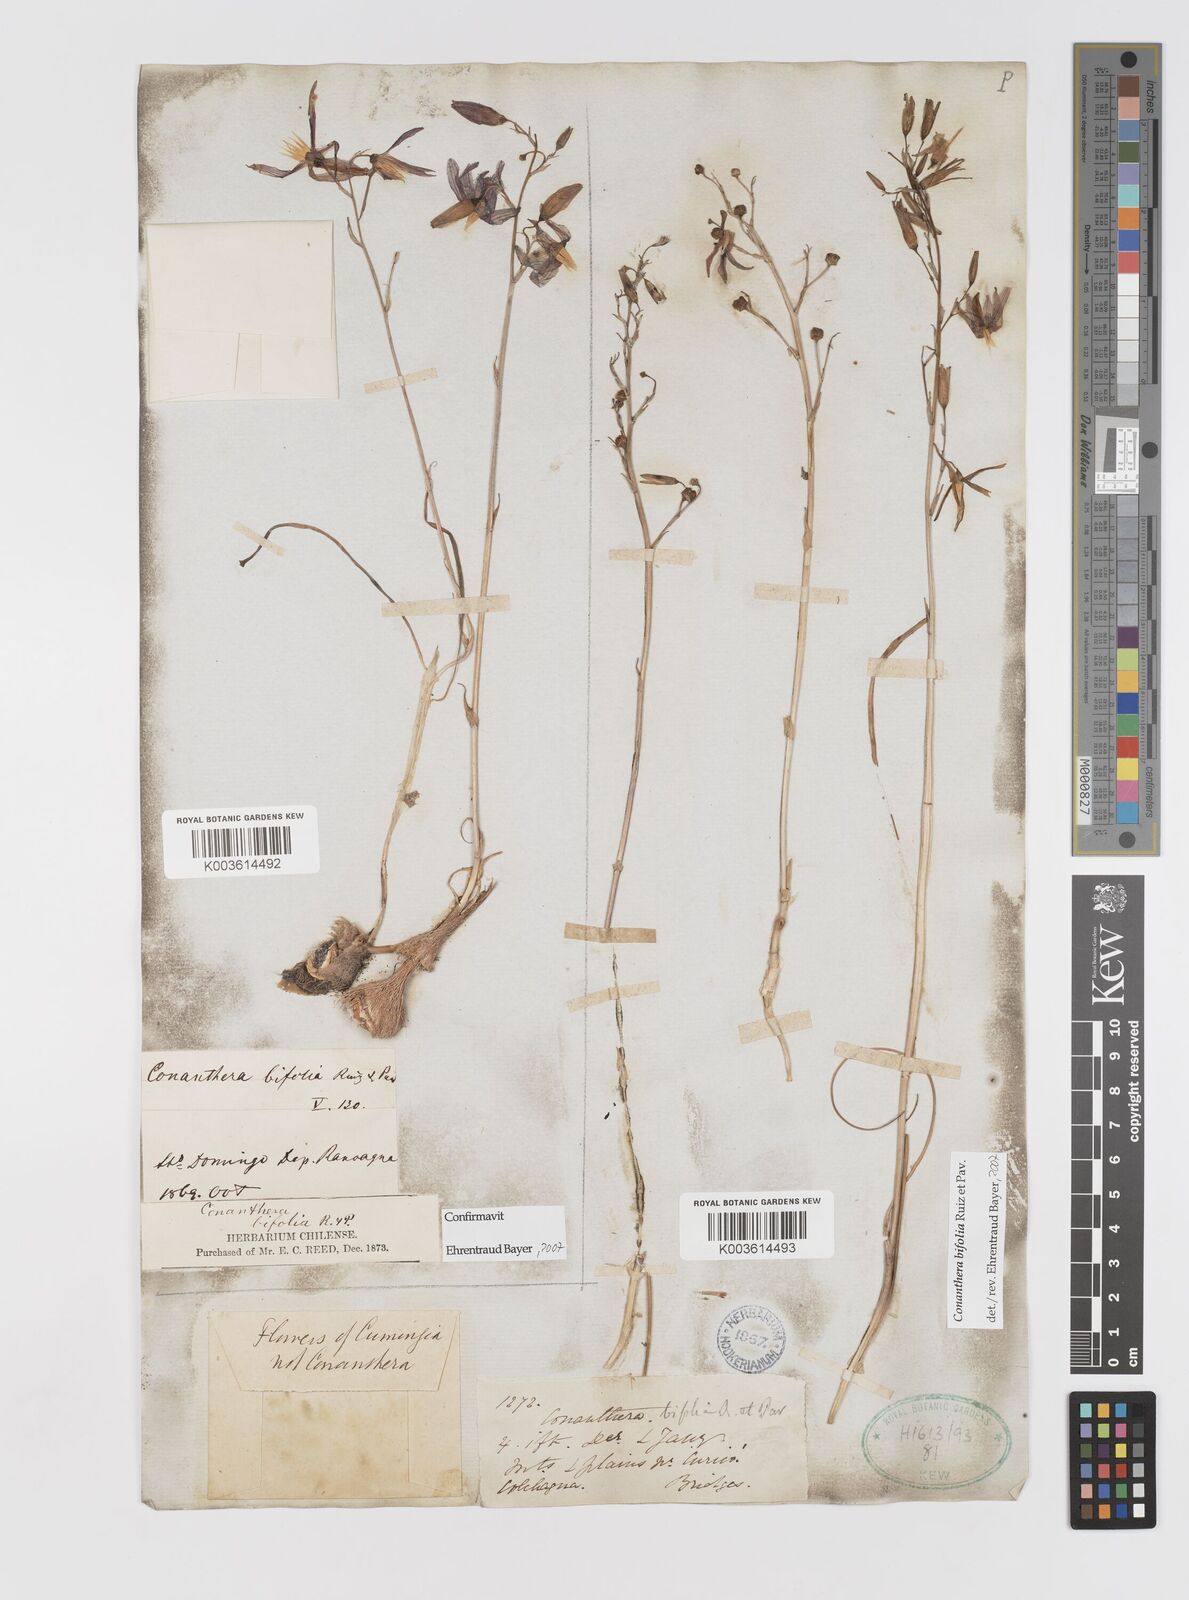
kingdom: Plantae
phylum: Tracheophyta
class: Liliopsida
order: Asparagales
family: Tecophilaeaceae
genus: Conanthera
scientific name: Conanthera bifolia
